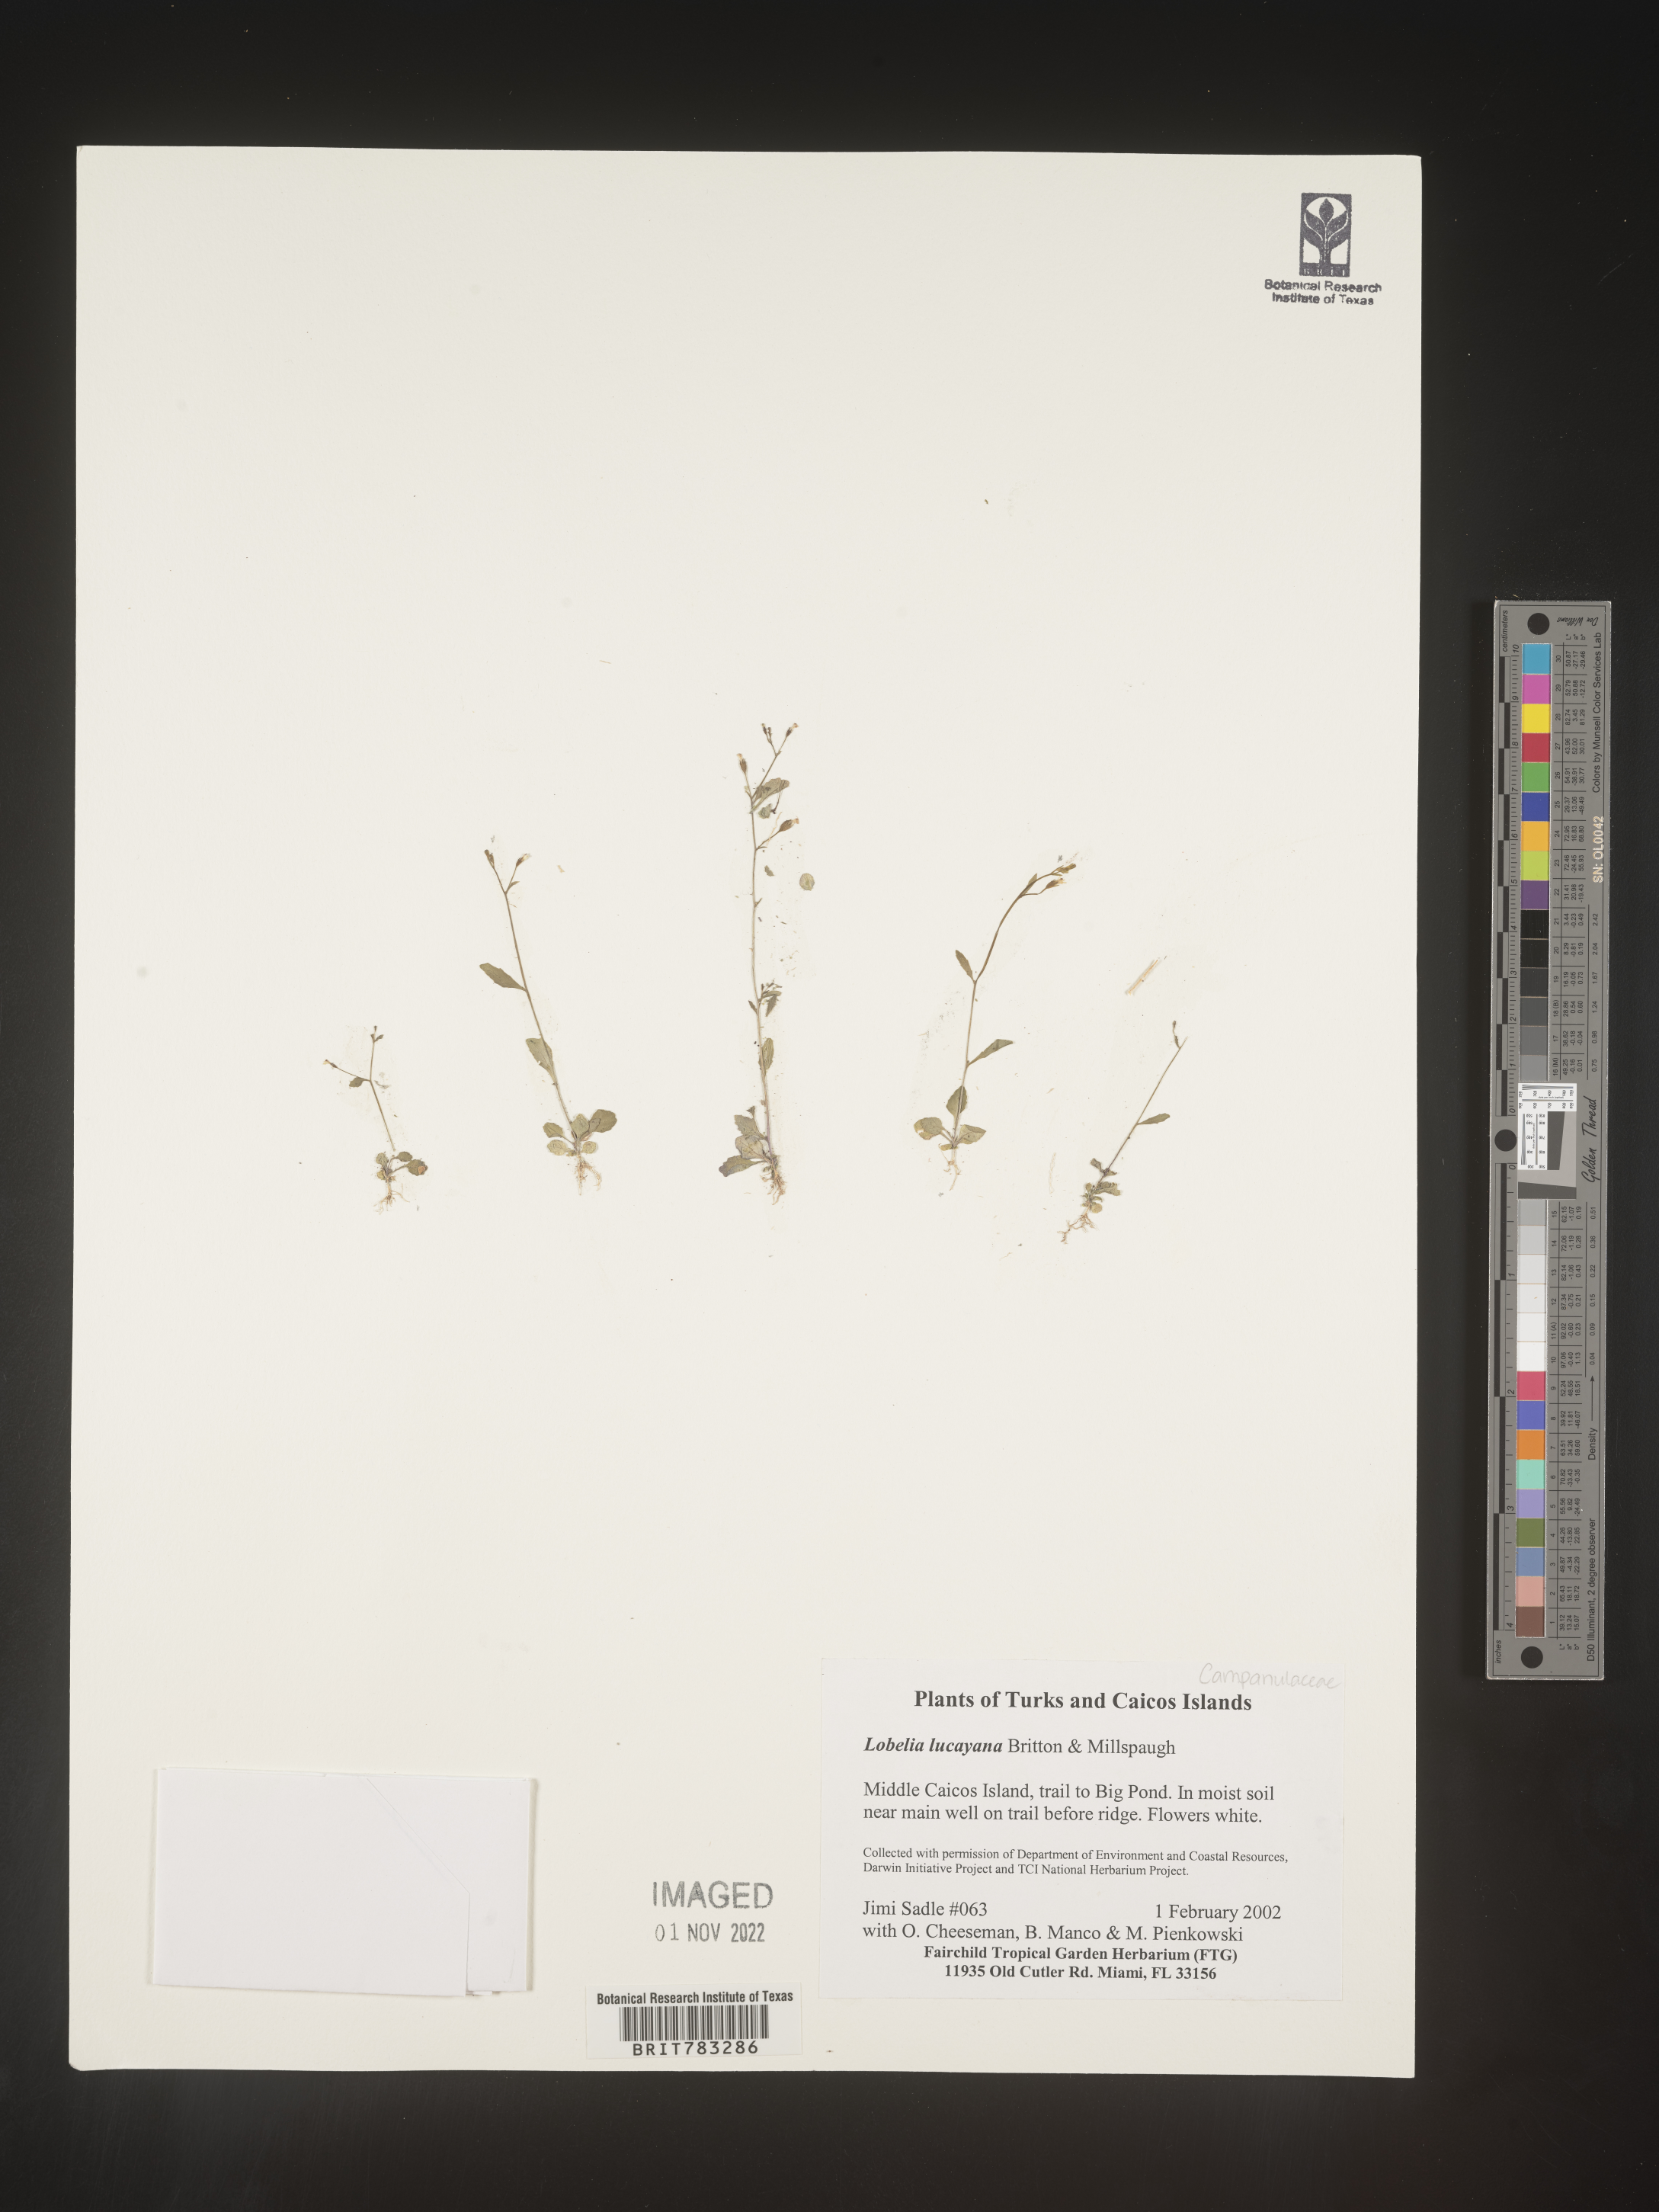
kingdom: Plantae
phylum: Tracheophyta
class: Magnoliopsida
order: Asterales
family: Campanulaceae
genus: Lobelia
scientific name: Lobelia
